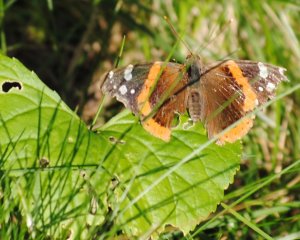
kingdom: Animalia
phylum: Arthropoda
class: Insecta
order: Lepidoptera
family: Nymphalidae
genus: Vanessa
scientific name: Vanessa atalanta
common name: Red Admiral
